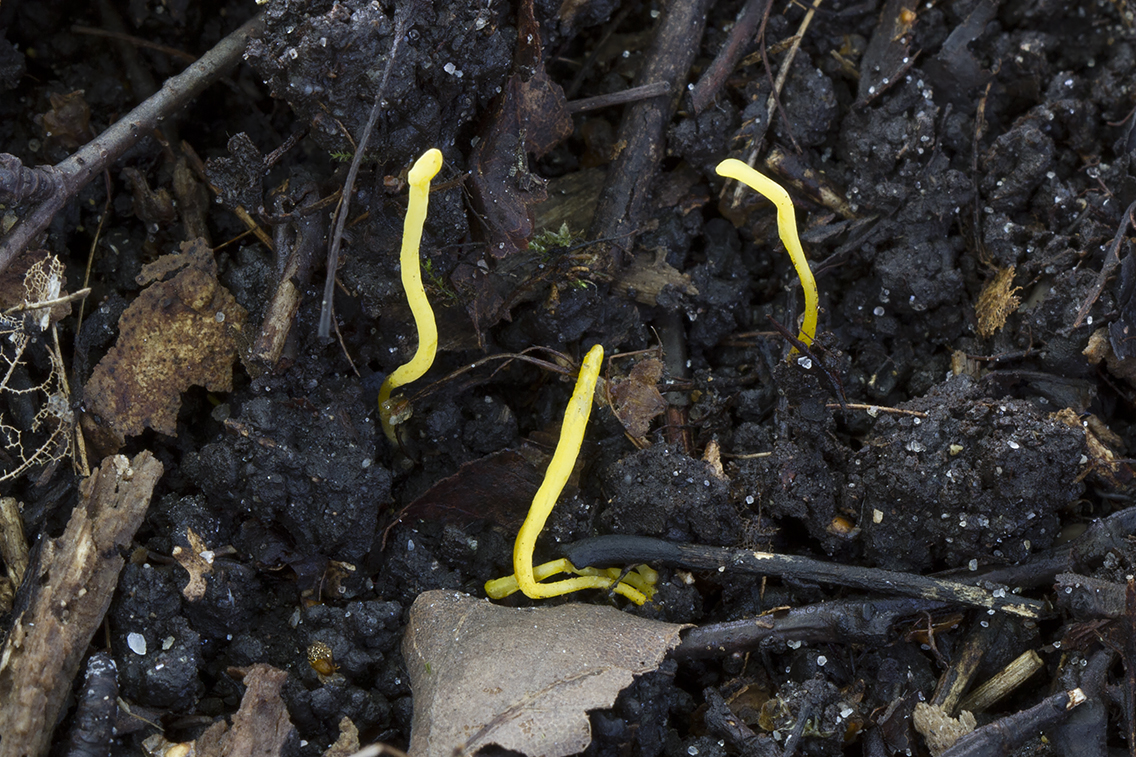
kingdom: Fungi
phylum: Basidiomycota
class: Agaricomycetes
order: Agaricales
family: Clavariaceae
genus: Clavulinopsis
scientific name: Clavulinopsis helvola
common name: orangegul køllesvamp
